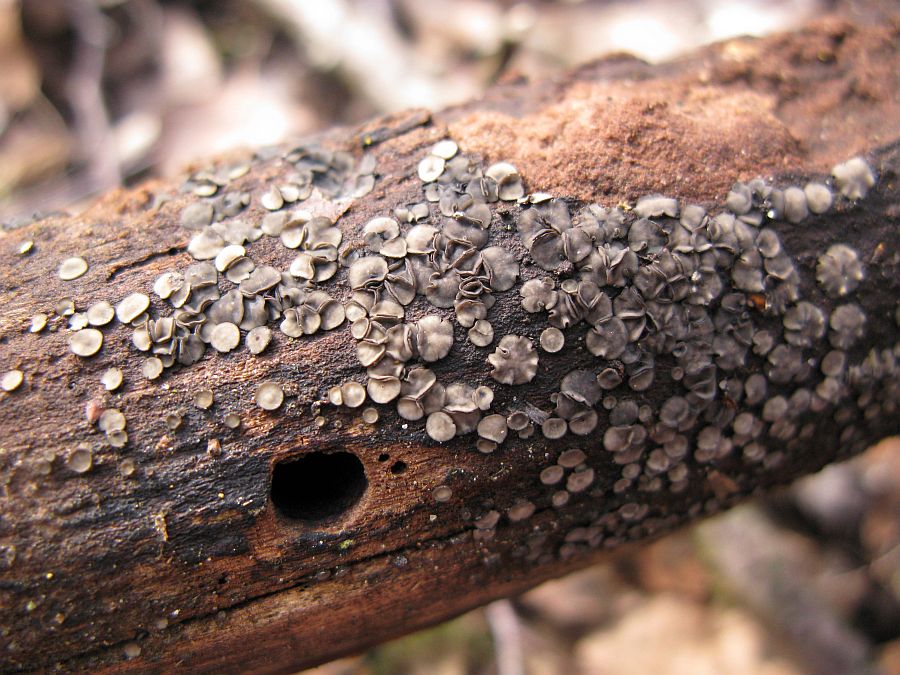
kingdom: Fungi
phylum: Ascomycota
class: Leotiomycetes
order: Helotiales
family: Mollisiaceae
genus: Mollisia
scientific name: Mollisia cinerea
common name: almindelig gråskive
